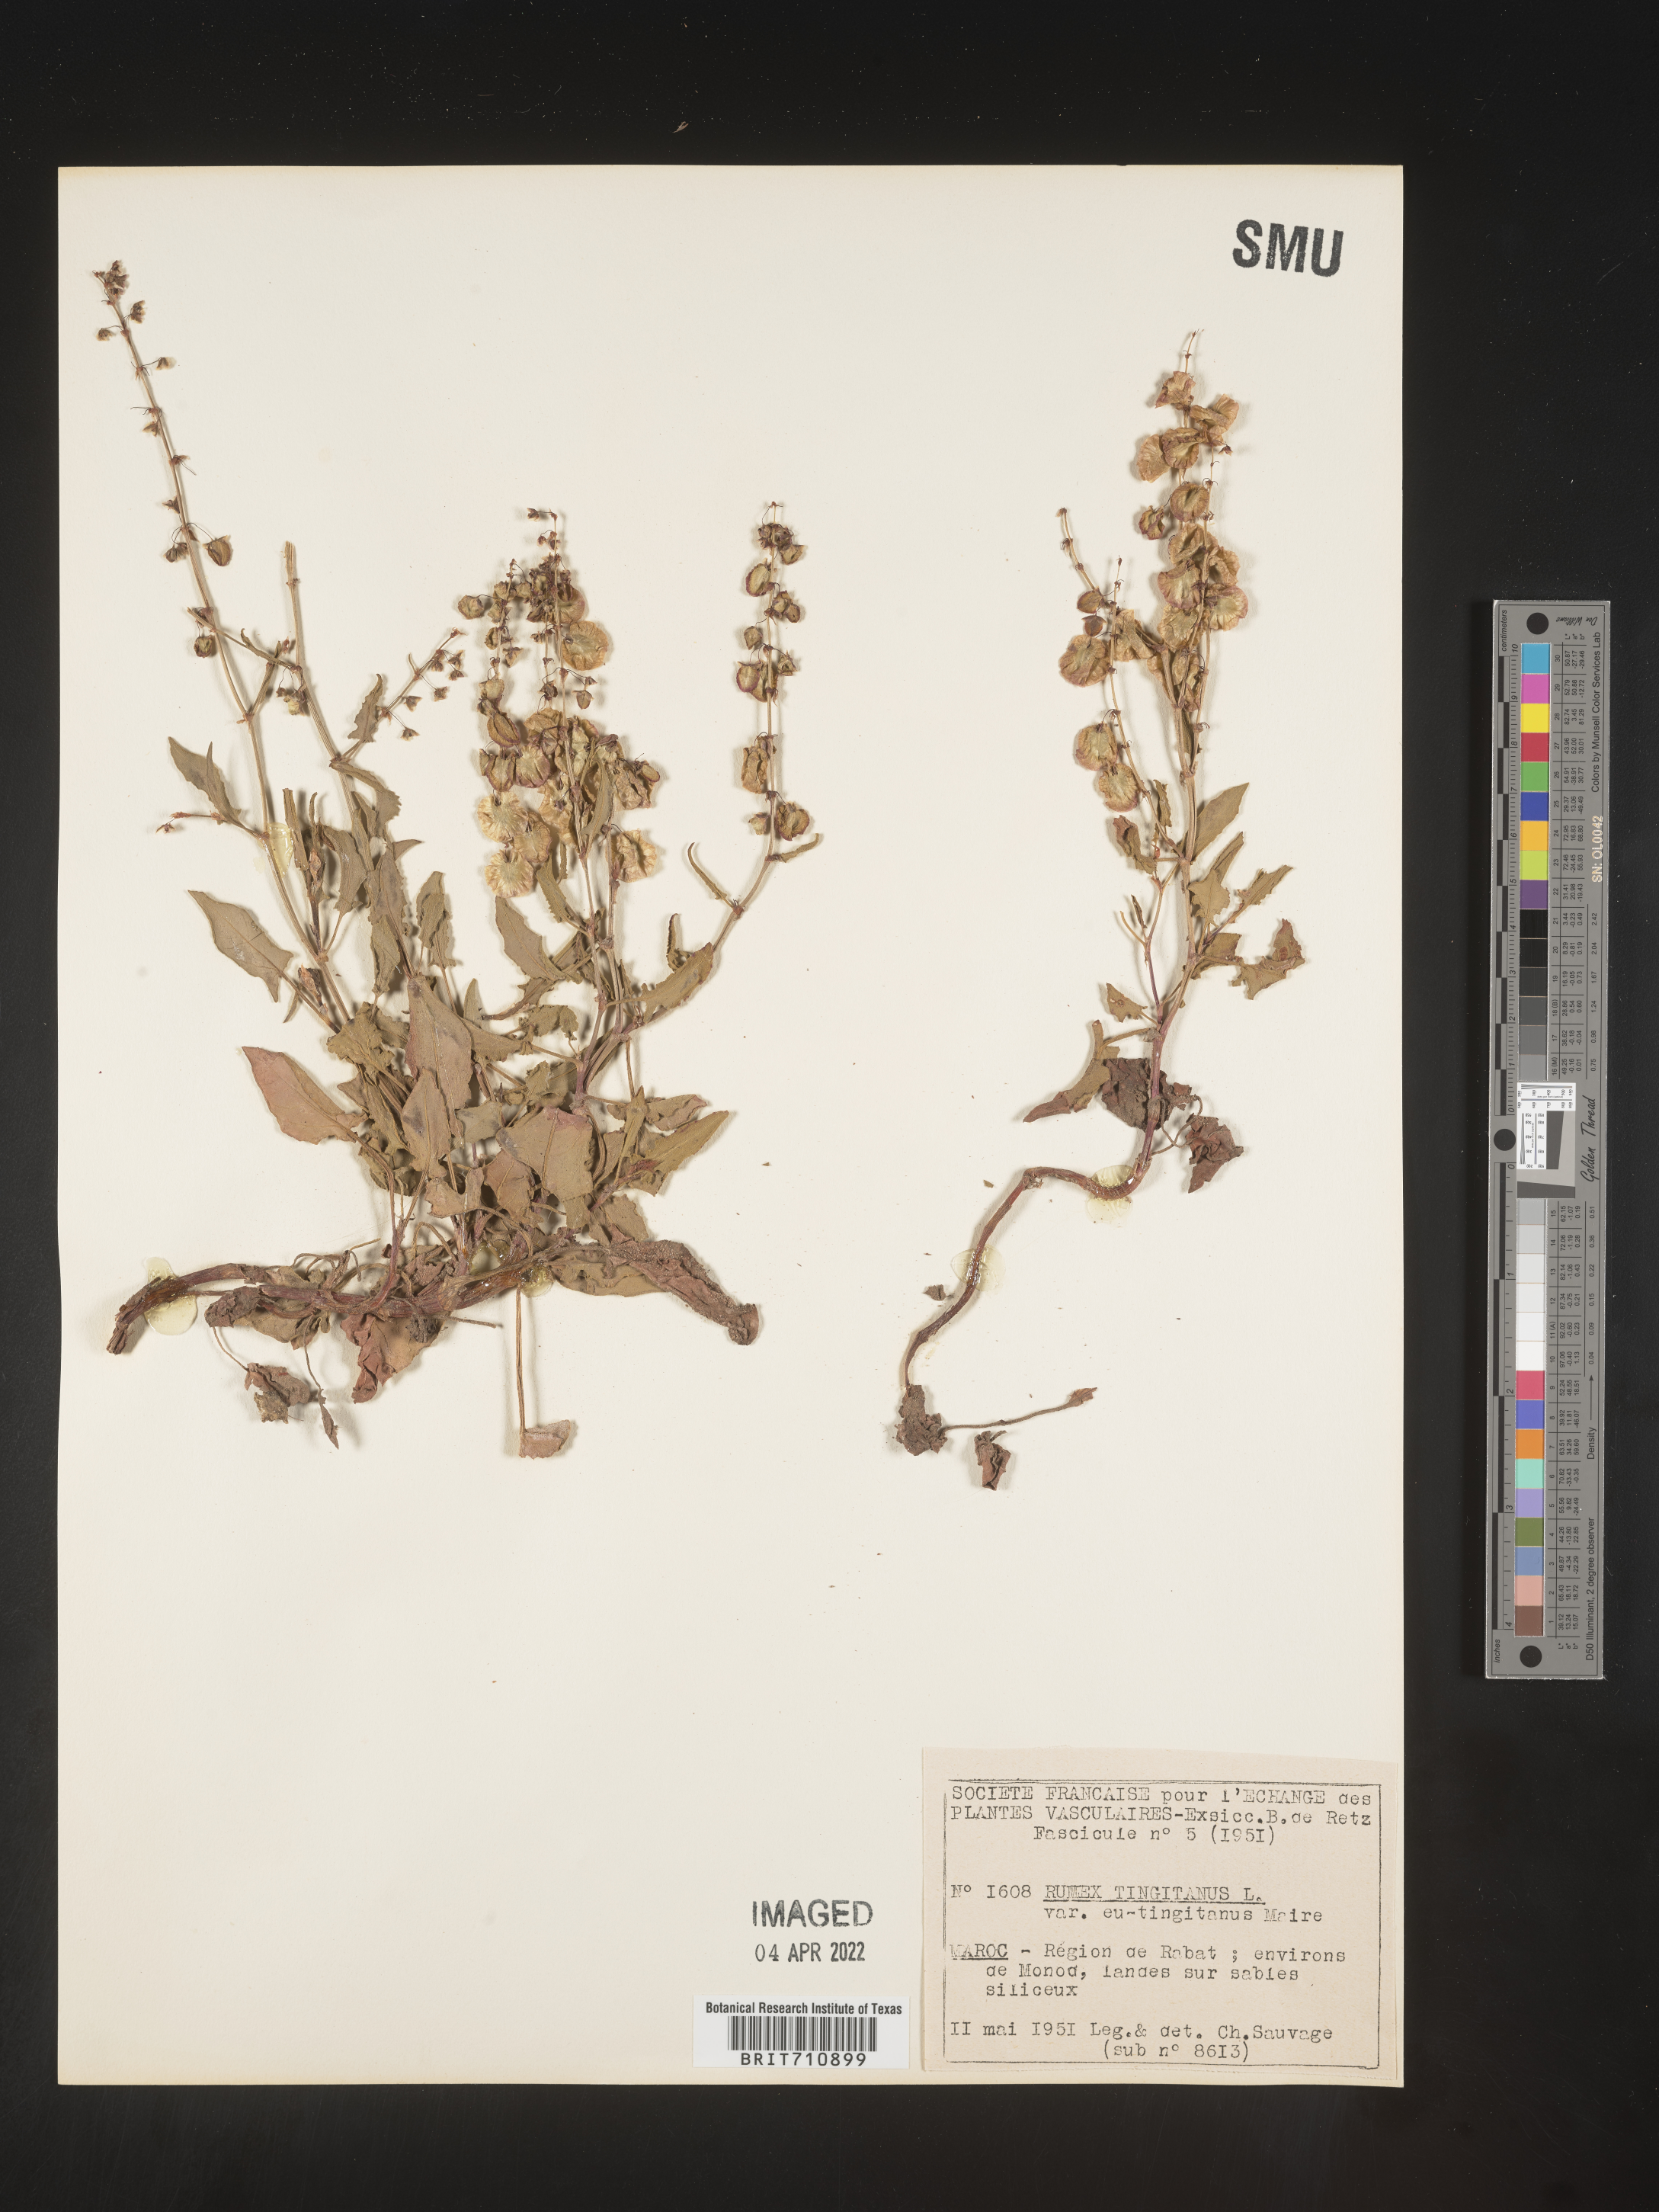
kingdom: Plantae
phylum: Tracheophyta
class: Magnoliopsida
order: Caryophyllales
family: Polygonaceae
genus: Rumex
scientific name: Rumex
